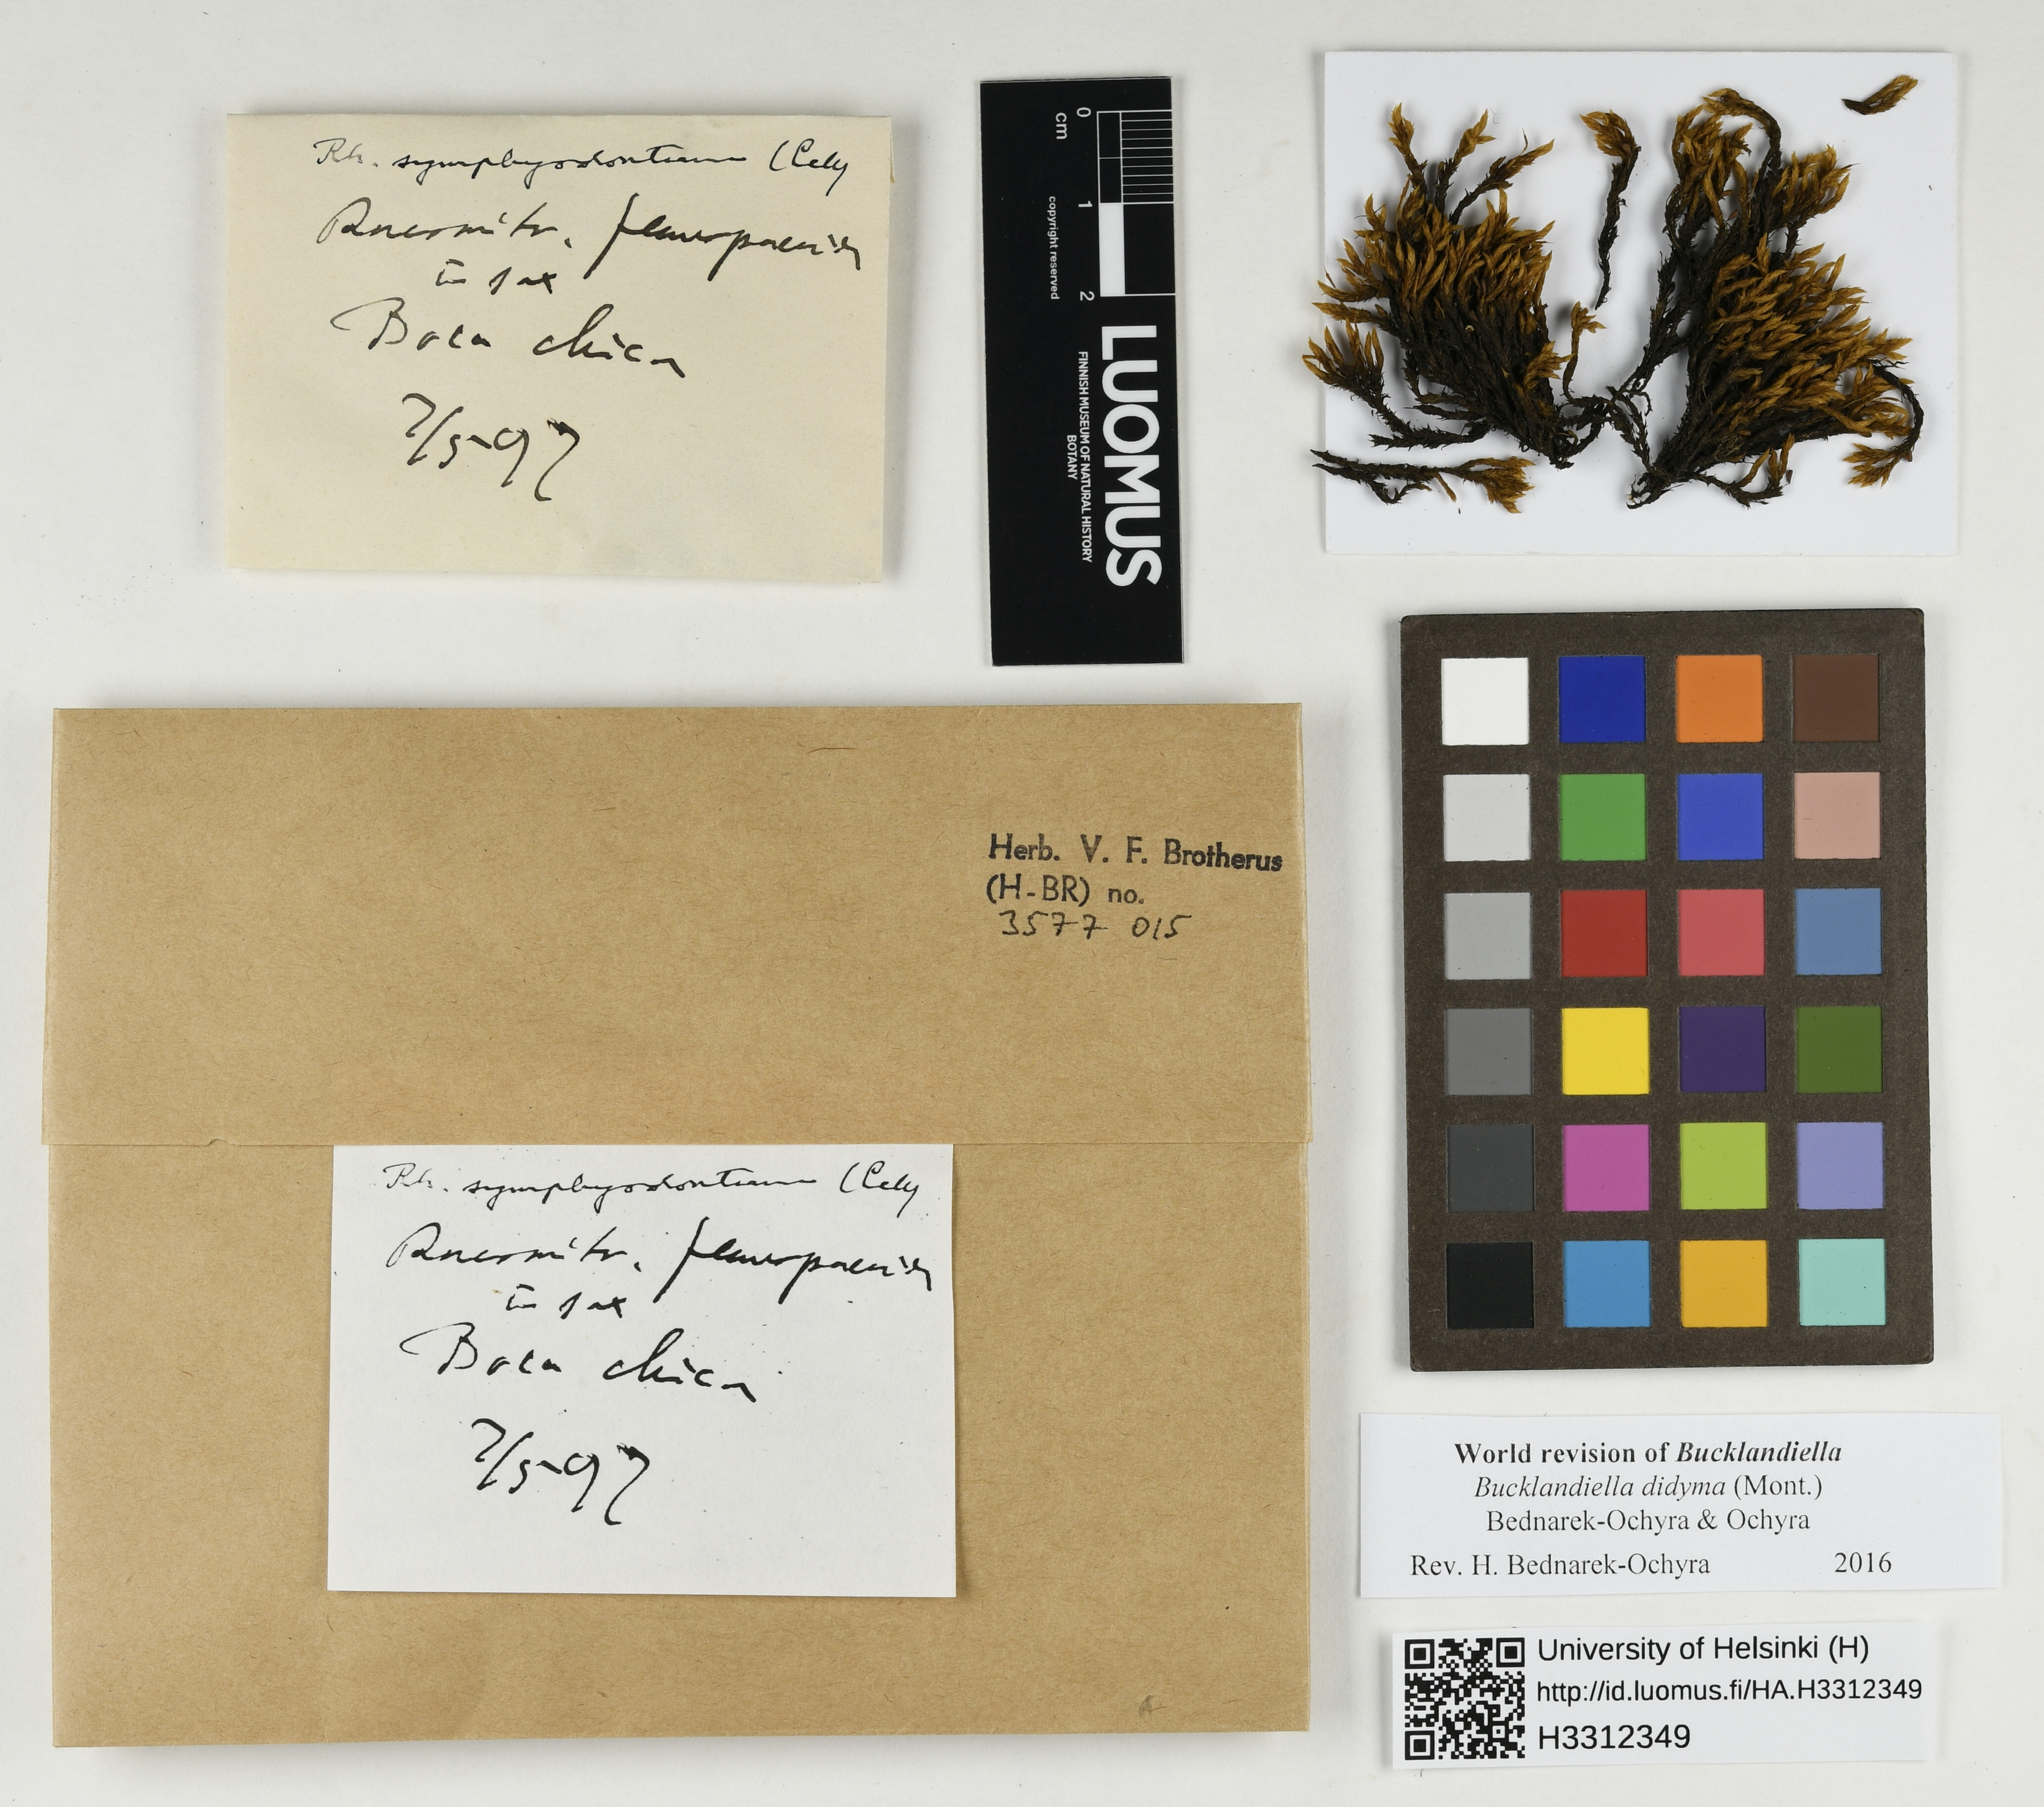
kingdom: Plantae
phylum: Bryophyta
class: Bryopsida
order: Grimmiales
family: Grimmiaceae
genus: Bucklandiella
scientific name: Bucklandiella didyma
